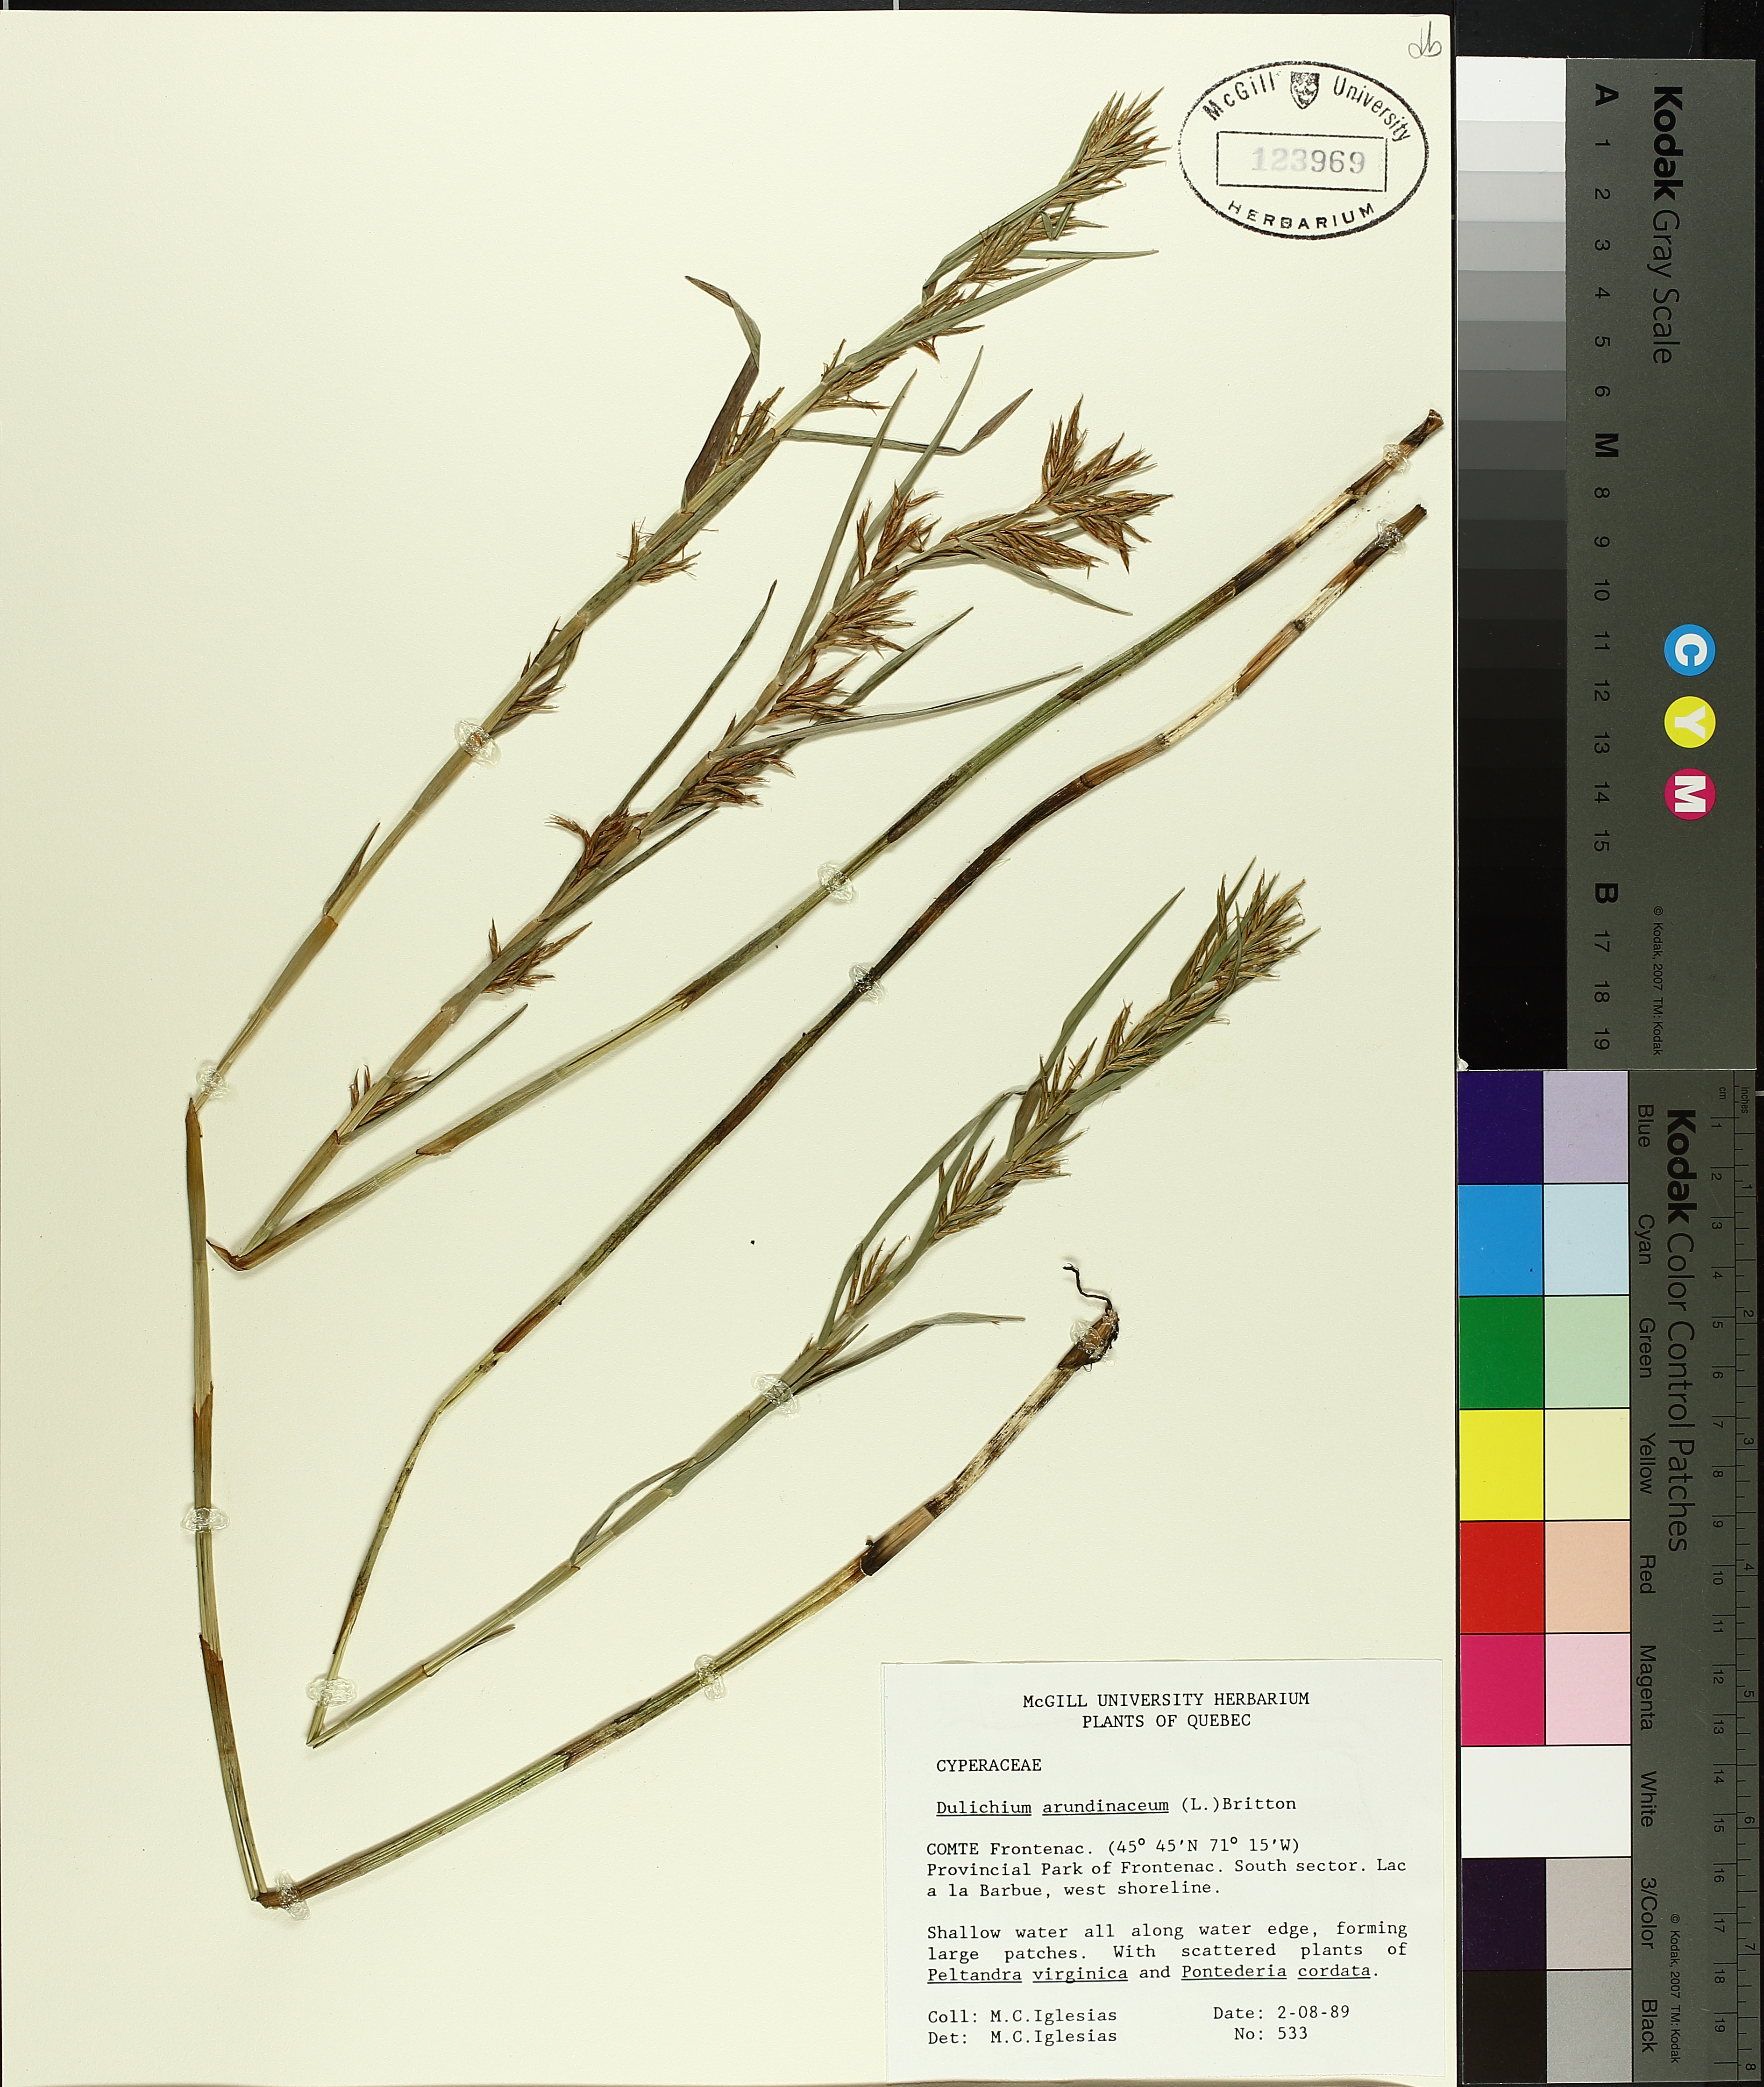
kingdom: Plantae
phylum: Tracheophyta
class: Liliopsida
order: Poales
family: Cyperaceae
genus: Dulichium
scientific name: Dulichium arundinaceum
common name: Three-way sedge
